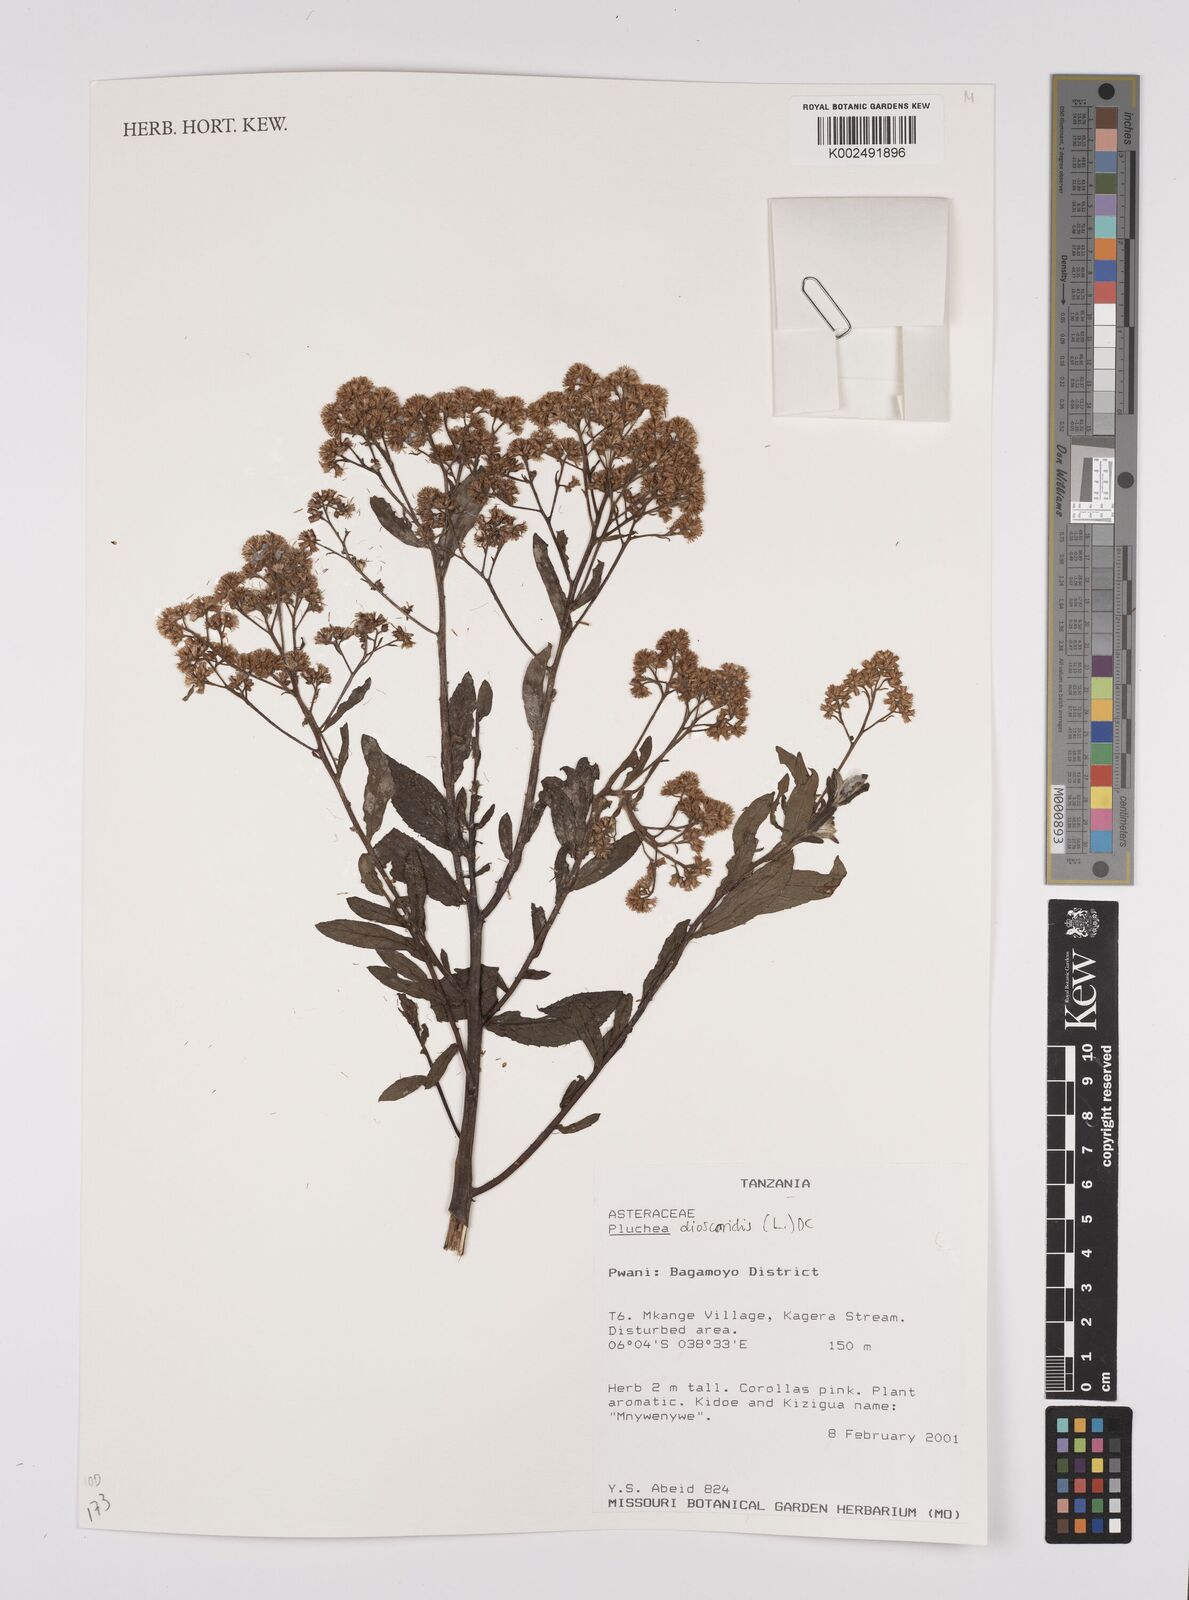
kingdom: Plantae
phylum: Tracheophyta
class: Magnoliopsida
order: Asterales
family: Asteraceae
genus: Pluchea
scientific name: Pluchea dioscoridis
